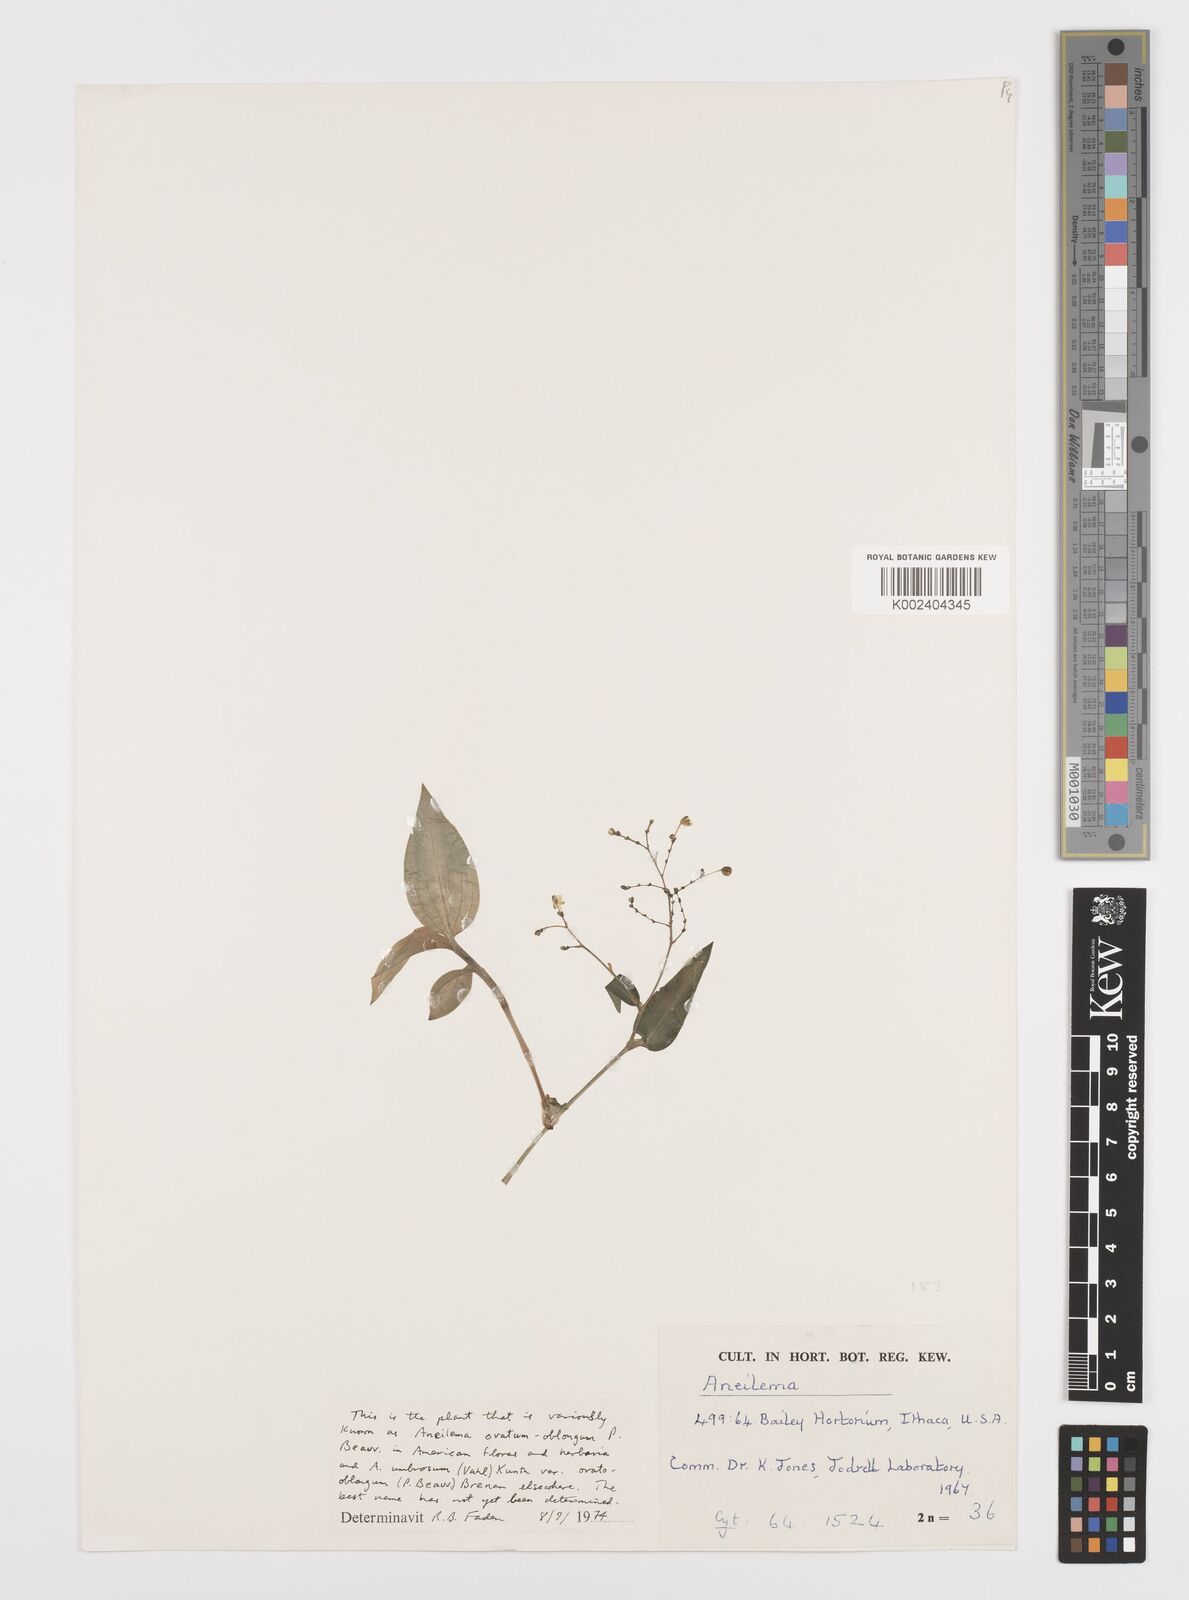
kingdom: Plantae
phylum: Tracheophyta
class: Liliopsida
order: Commelinales
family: Commelinaceae
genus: Aneilema
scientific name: Aneilema umbrosum
